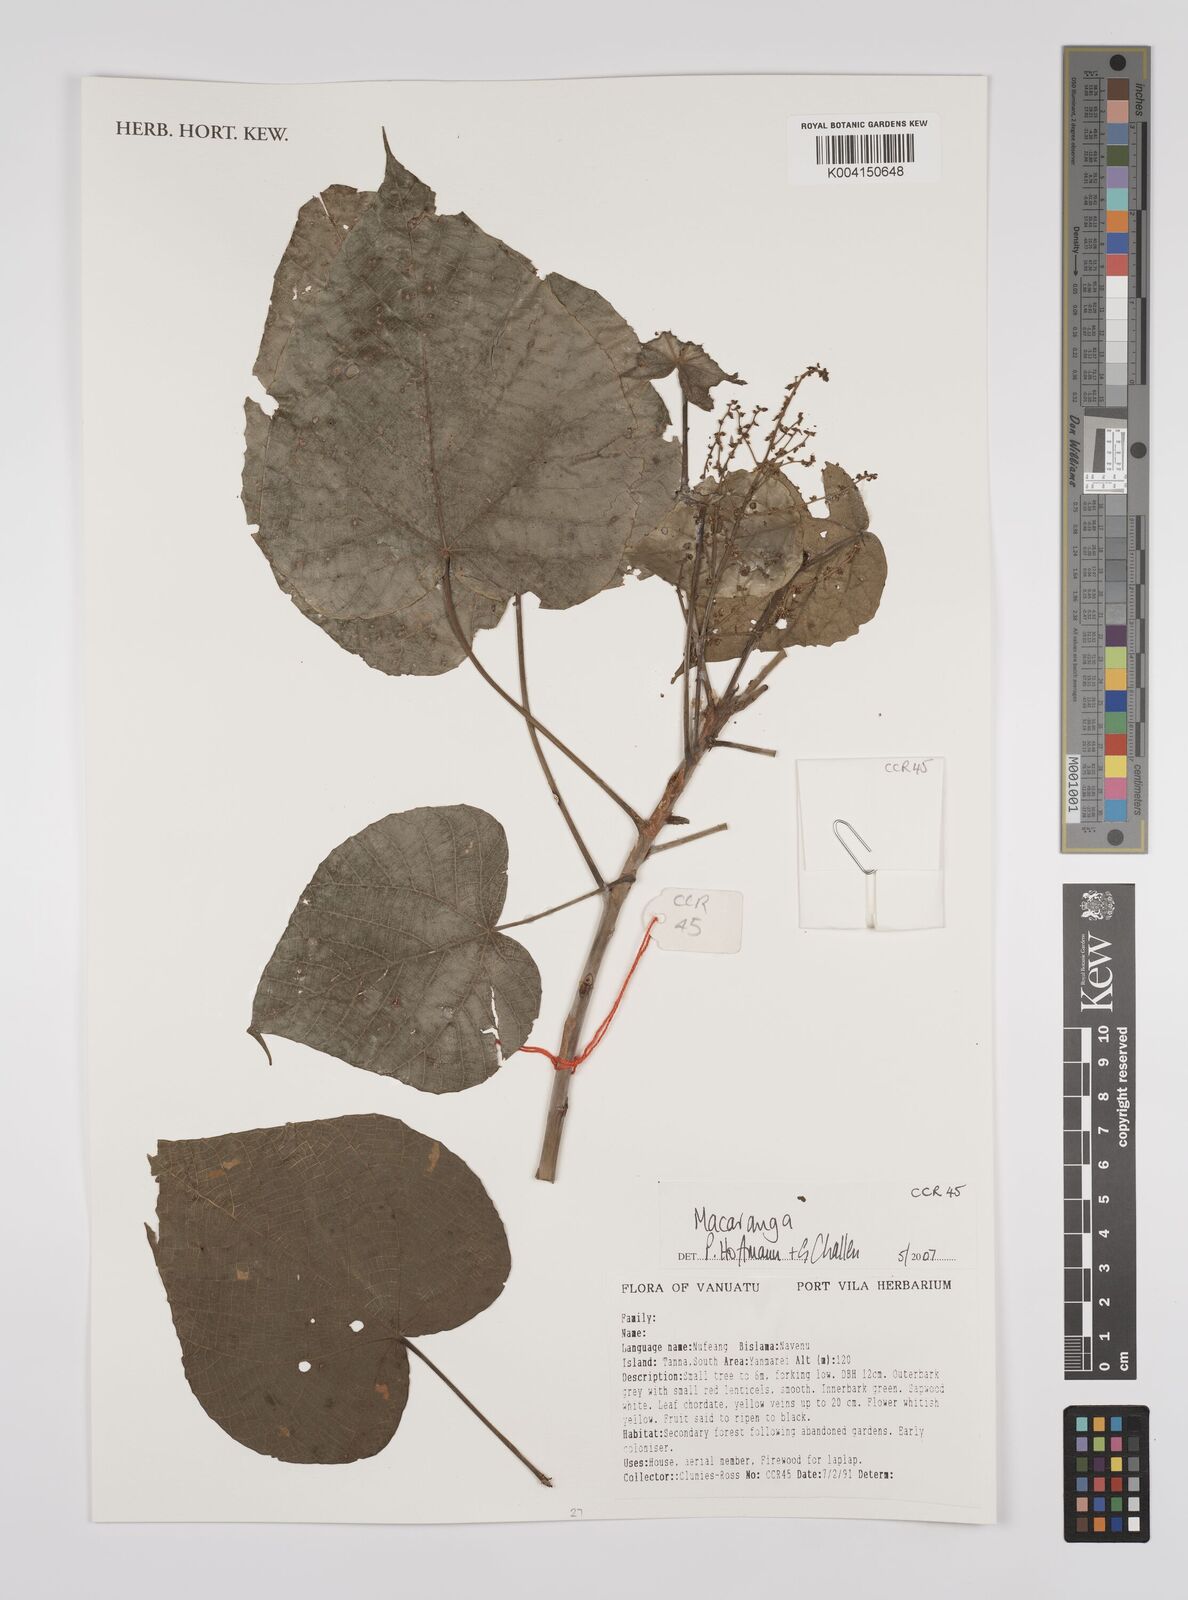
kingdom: Plantae
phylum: Tracheophyta
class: Magnoliopsida
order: Malpighiales
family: Euphorbiaceae
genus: Macaranga
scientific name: Macaranga
